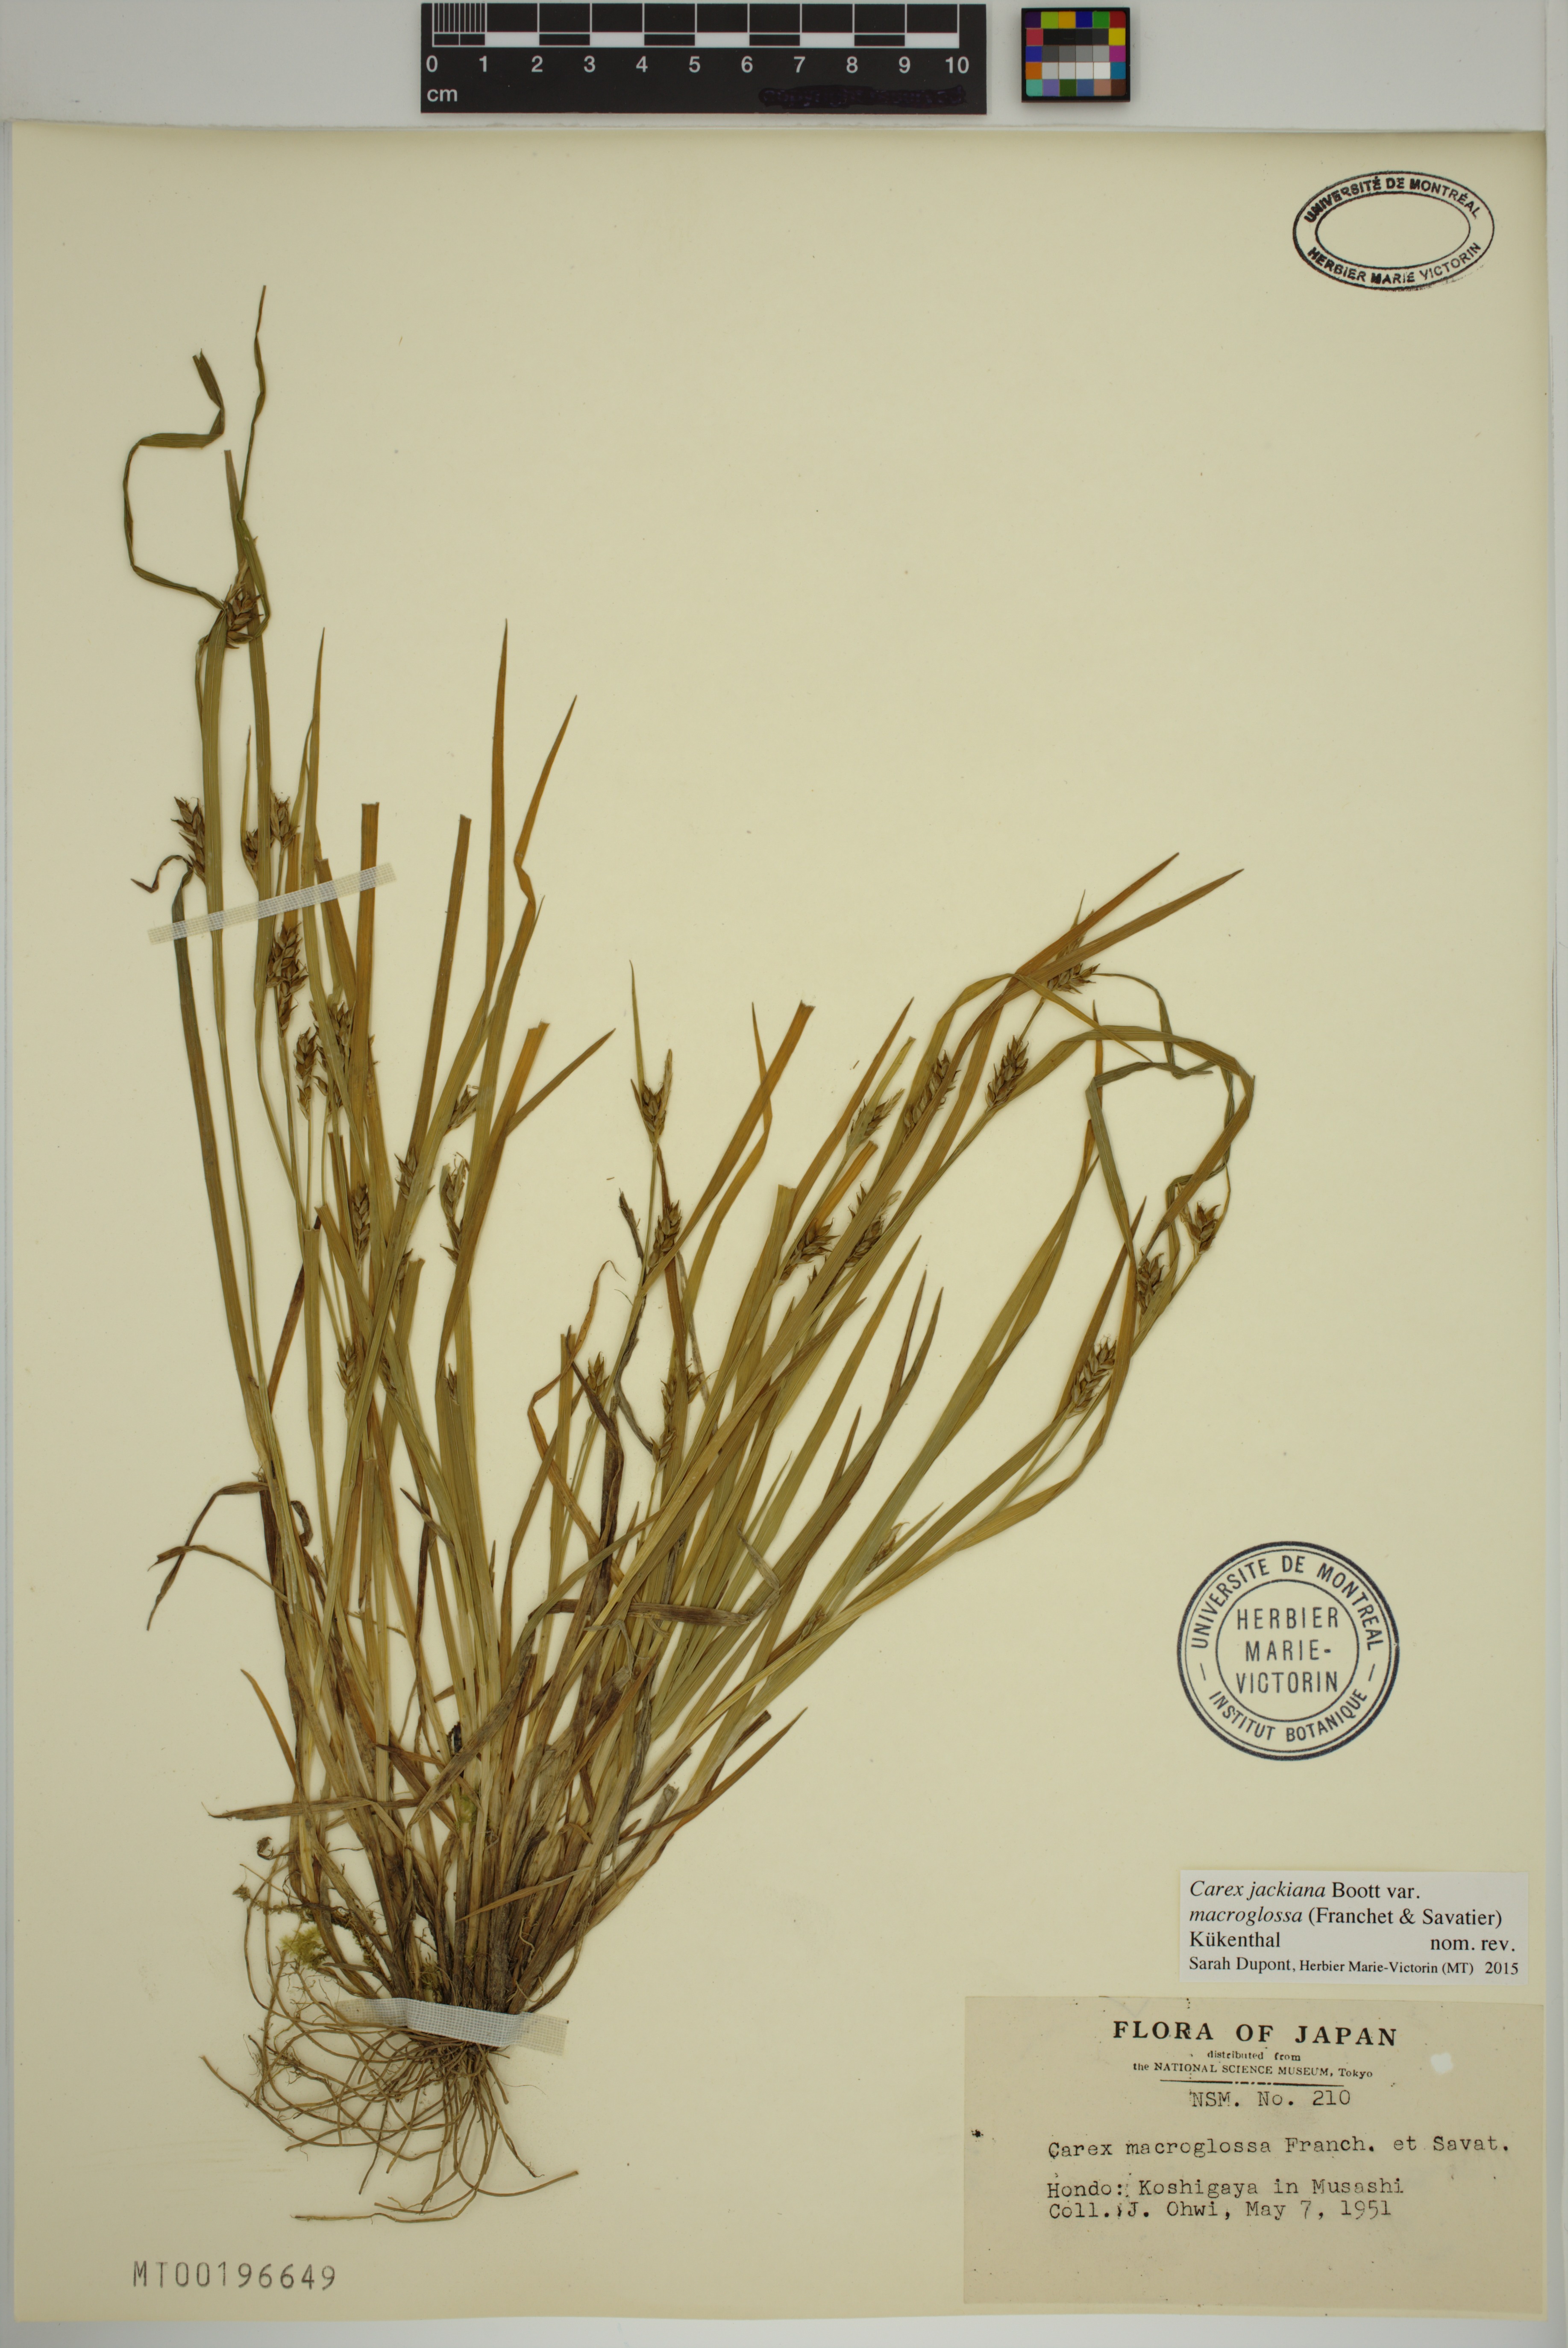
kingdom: Plantae
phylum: Tracheophyta
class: Liliopsida
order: Poales
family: Cyperaceae
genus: Carex
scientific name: Carex macroglossa
